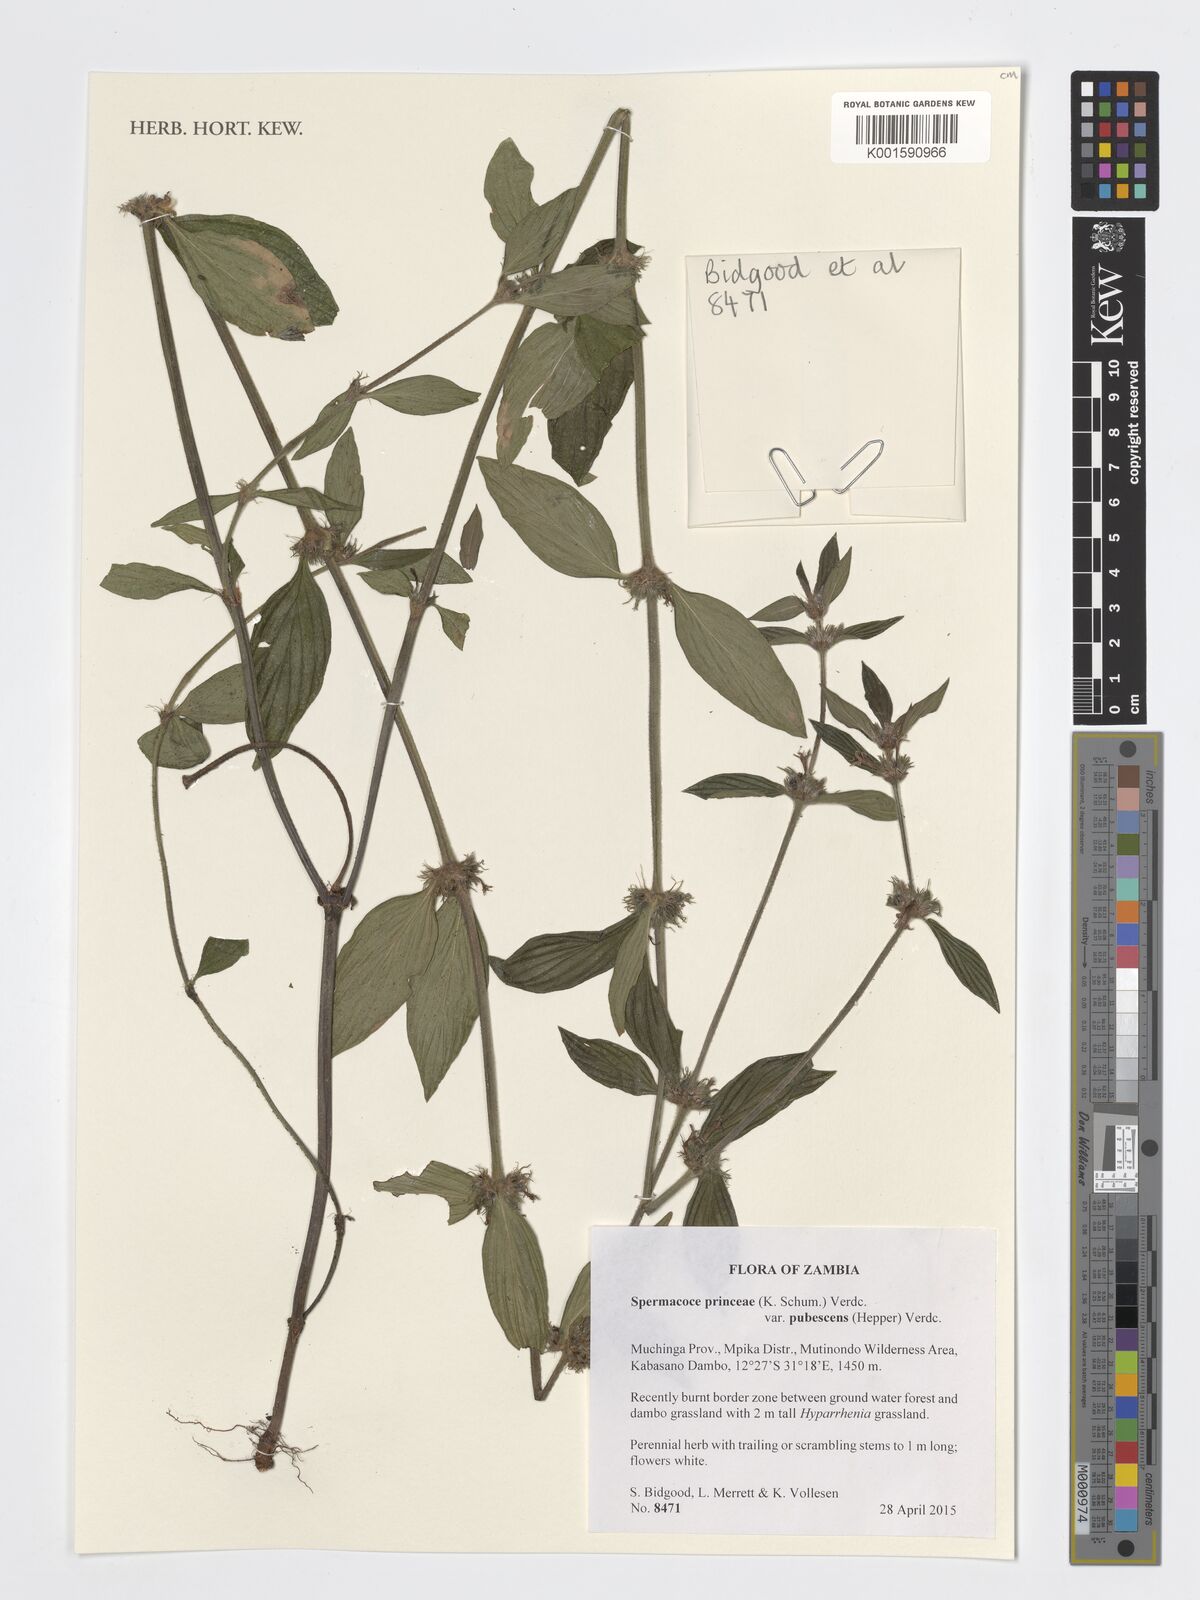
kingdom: Plantae
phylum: Tracheophyta
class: Magnoliopsida
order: Gentianales
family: Rubiaceae
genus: Spermacoce
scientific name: Spermacoce princeae
